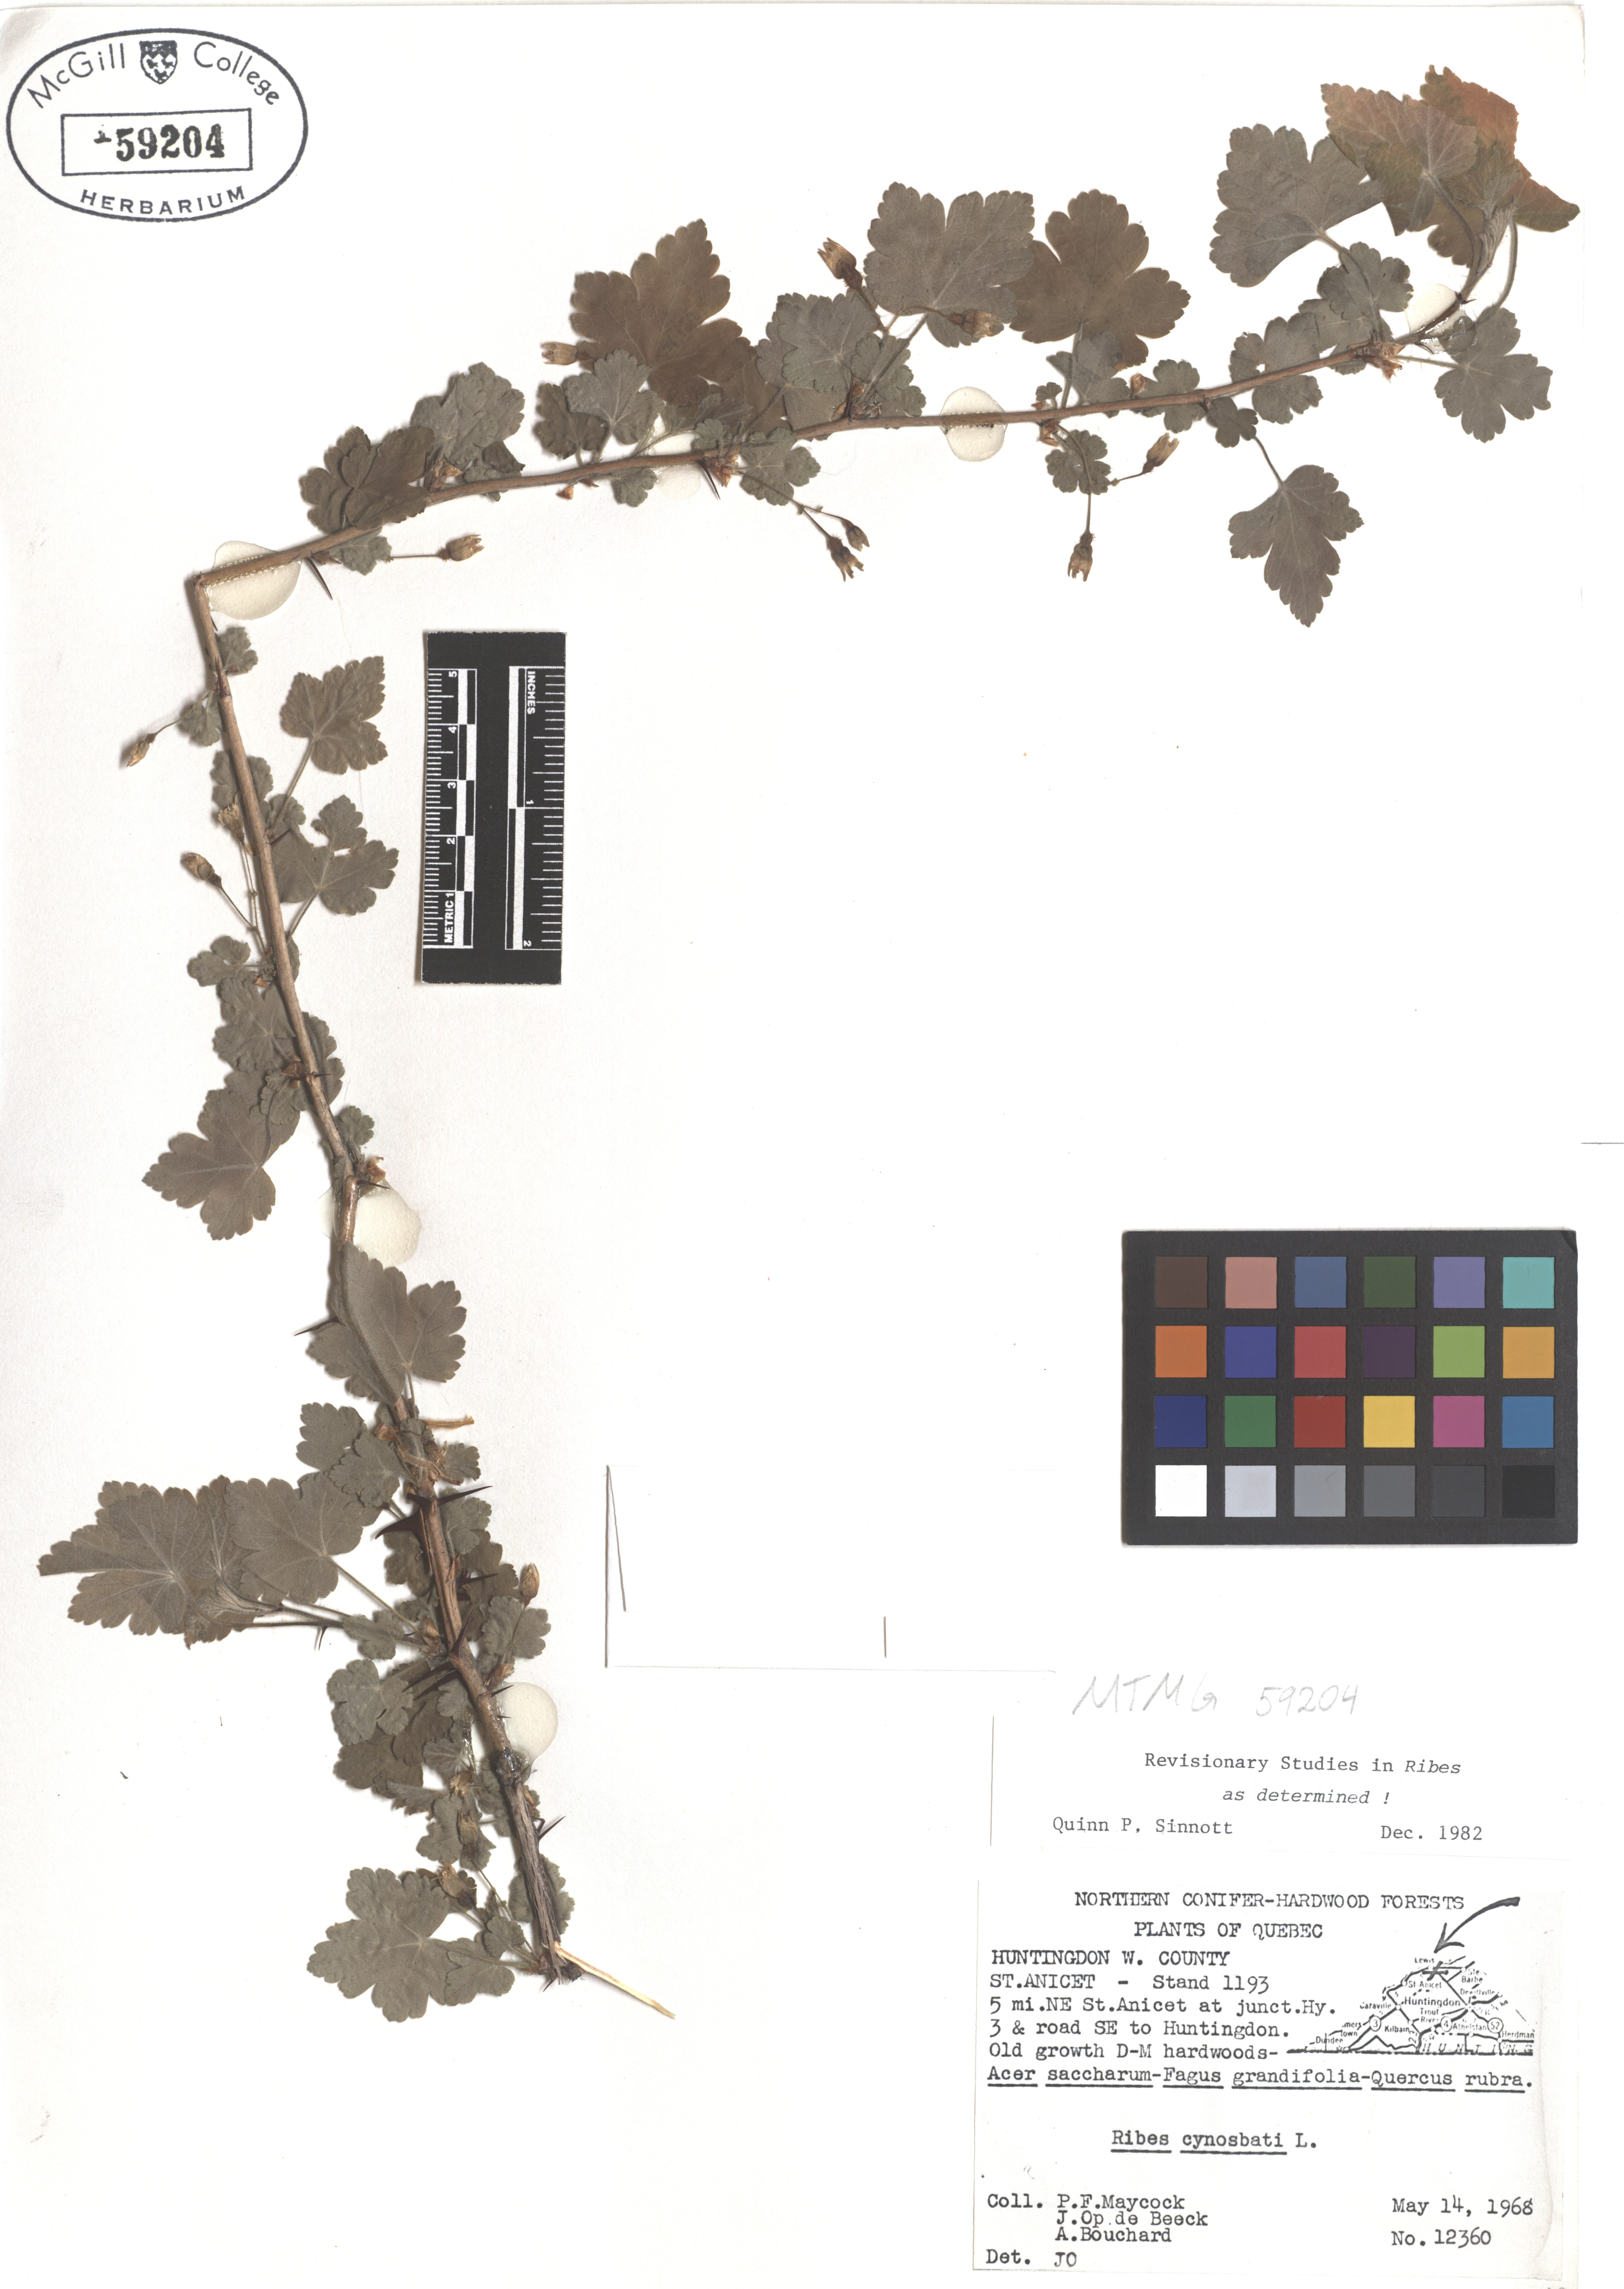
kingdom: Plantae
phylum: Tracheophyta
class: Magnoliopsida
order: Saxifragales
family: Grossulariaceae
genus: Ribes
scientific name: Ribes cynosbati
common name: American gooseberry
